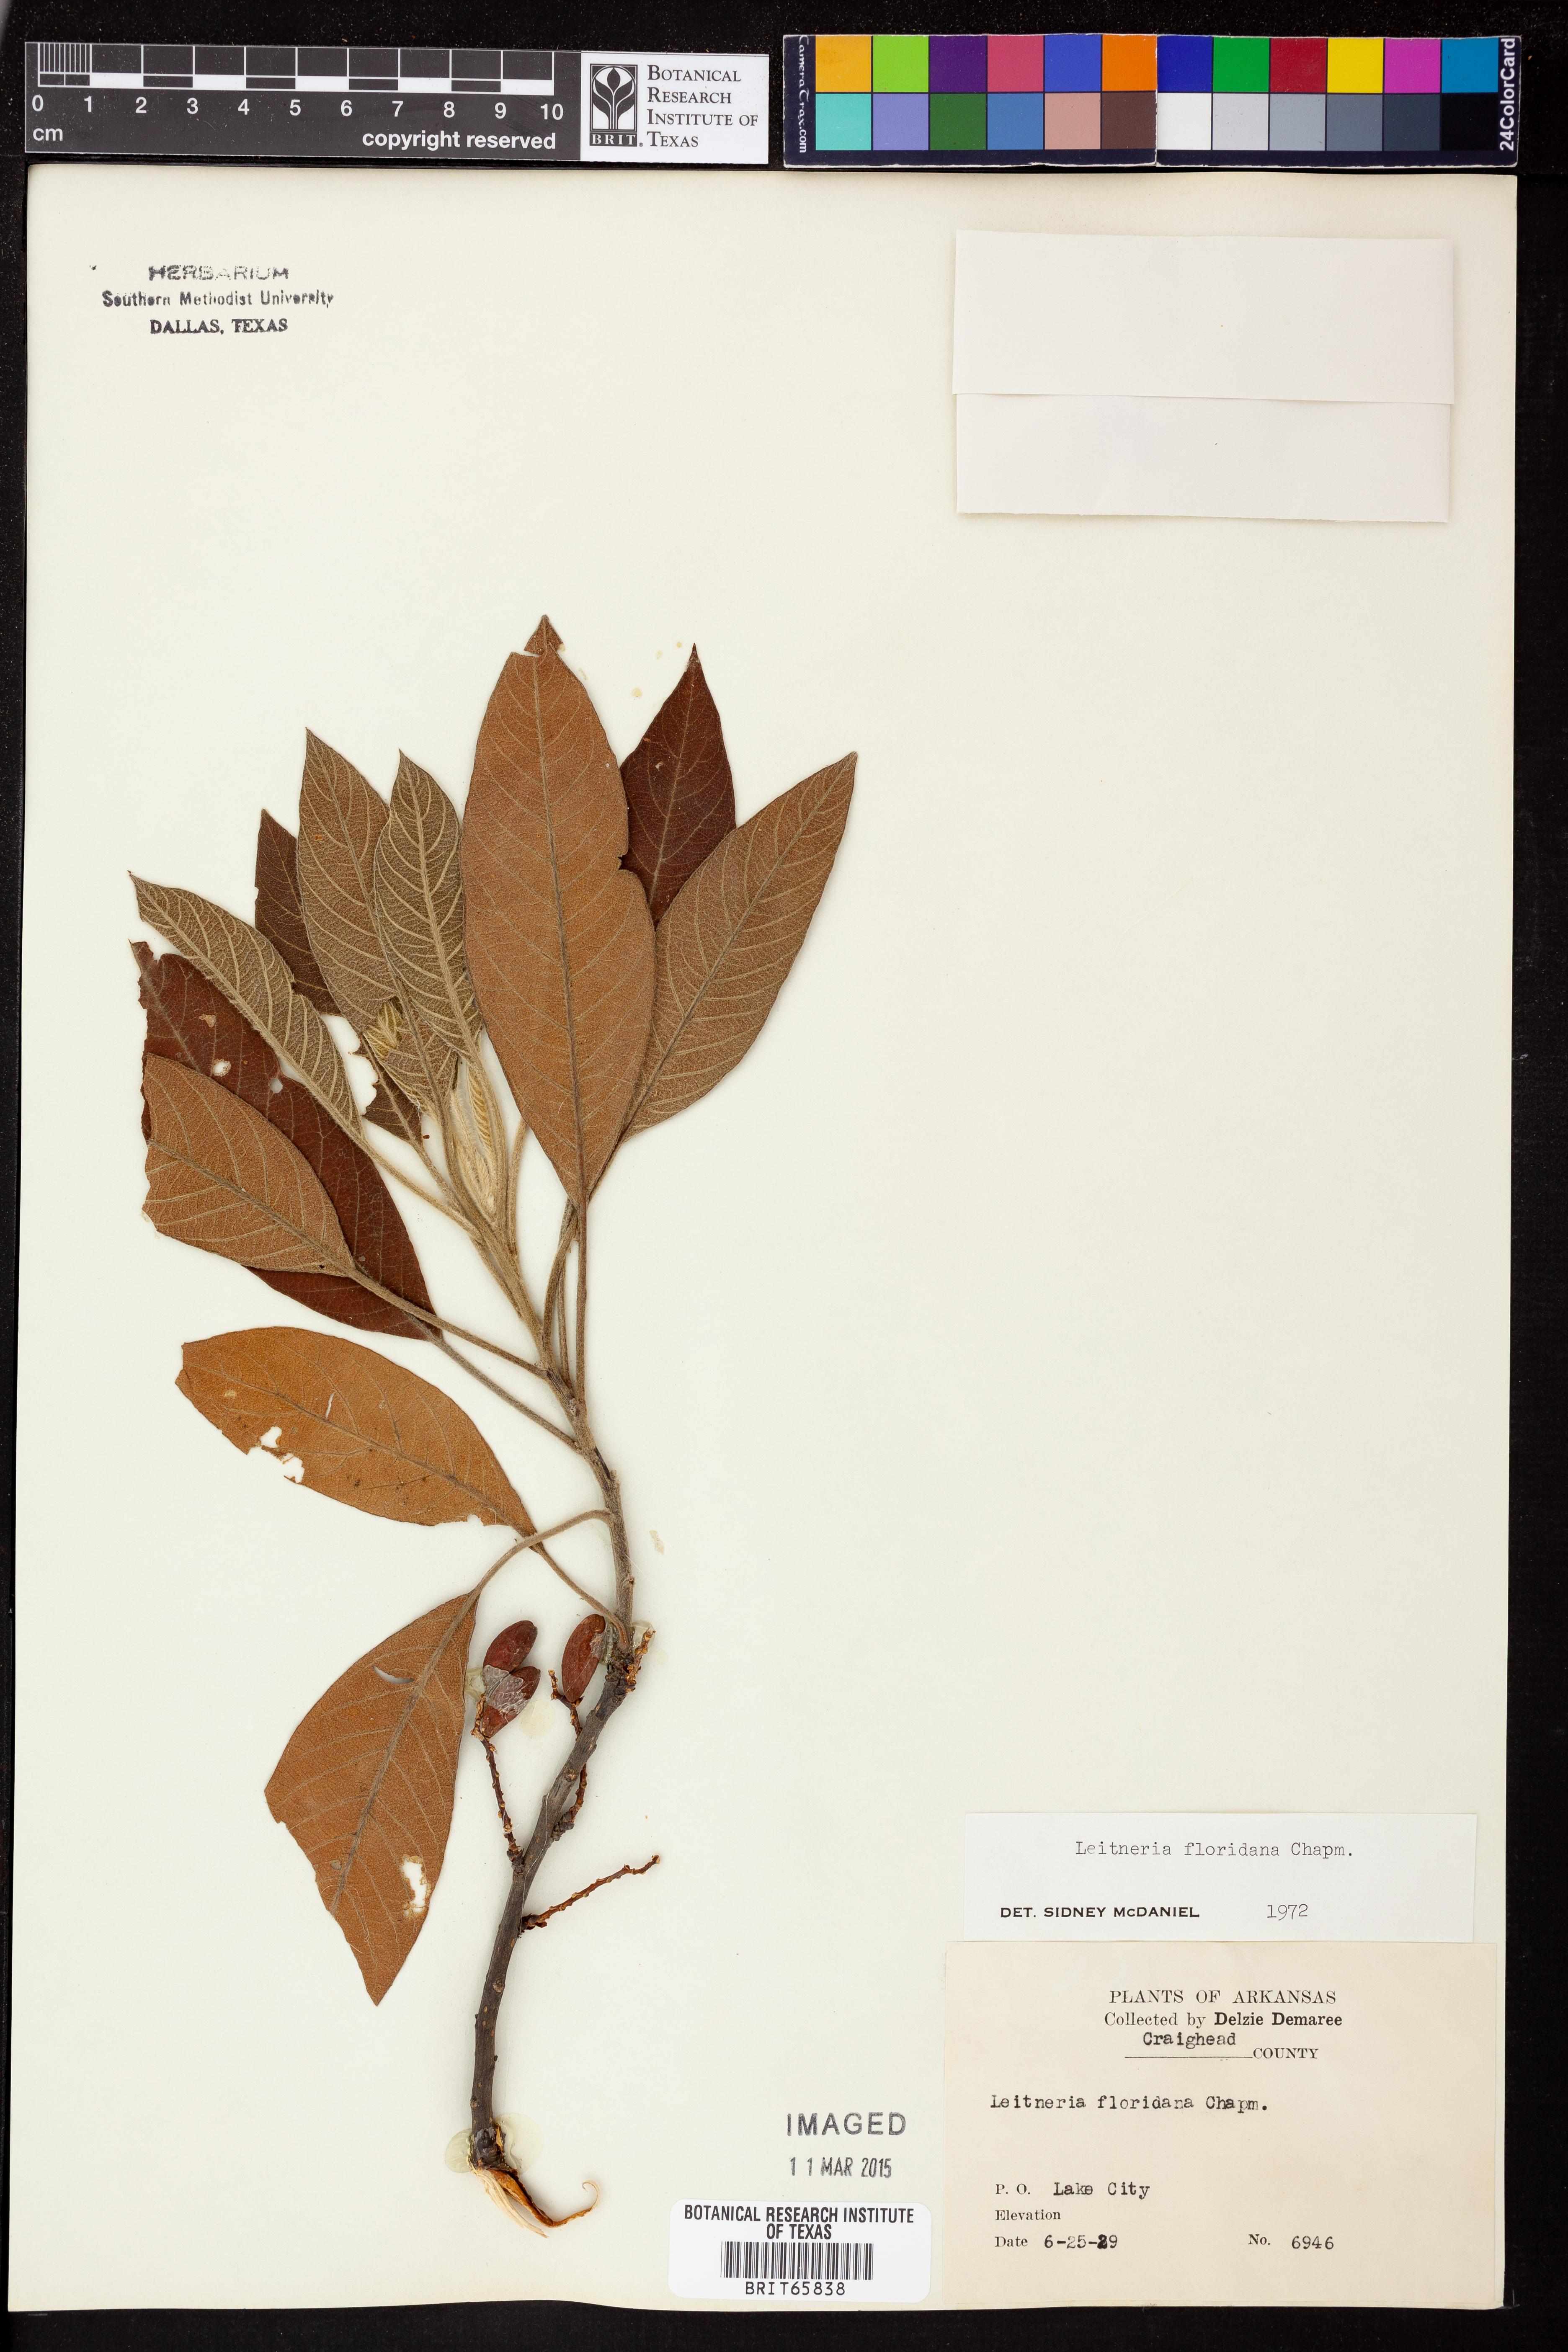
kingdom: Plantae
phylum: Tracheophyta
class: Magnoliopsida
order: Sapindales
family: Simaroubaceae
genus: Leitneria
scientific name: Leitneria floridana
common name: Corkwood
